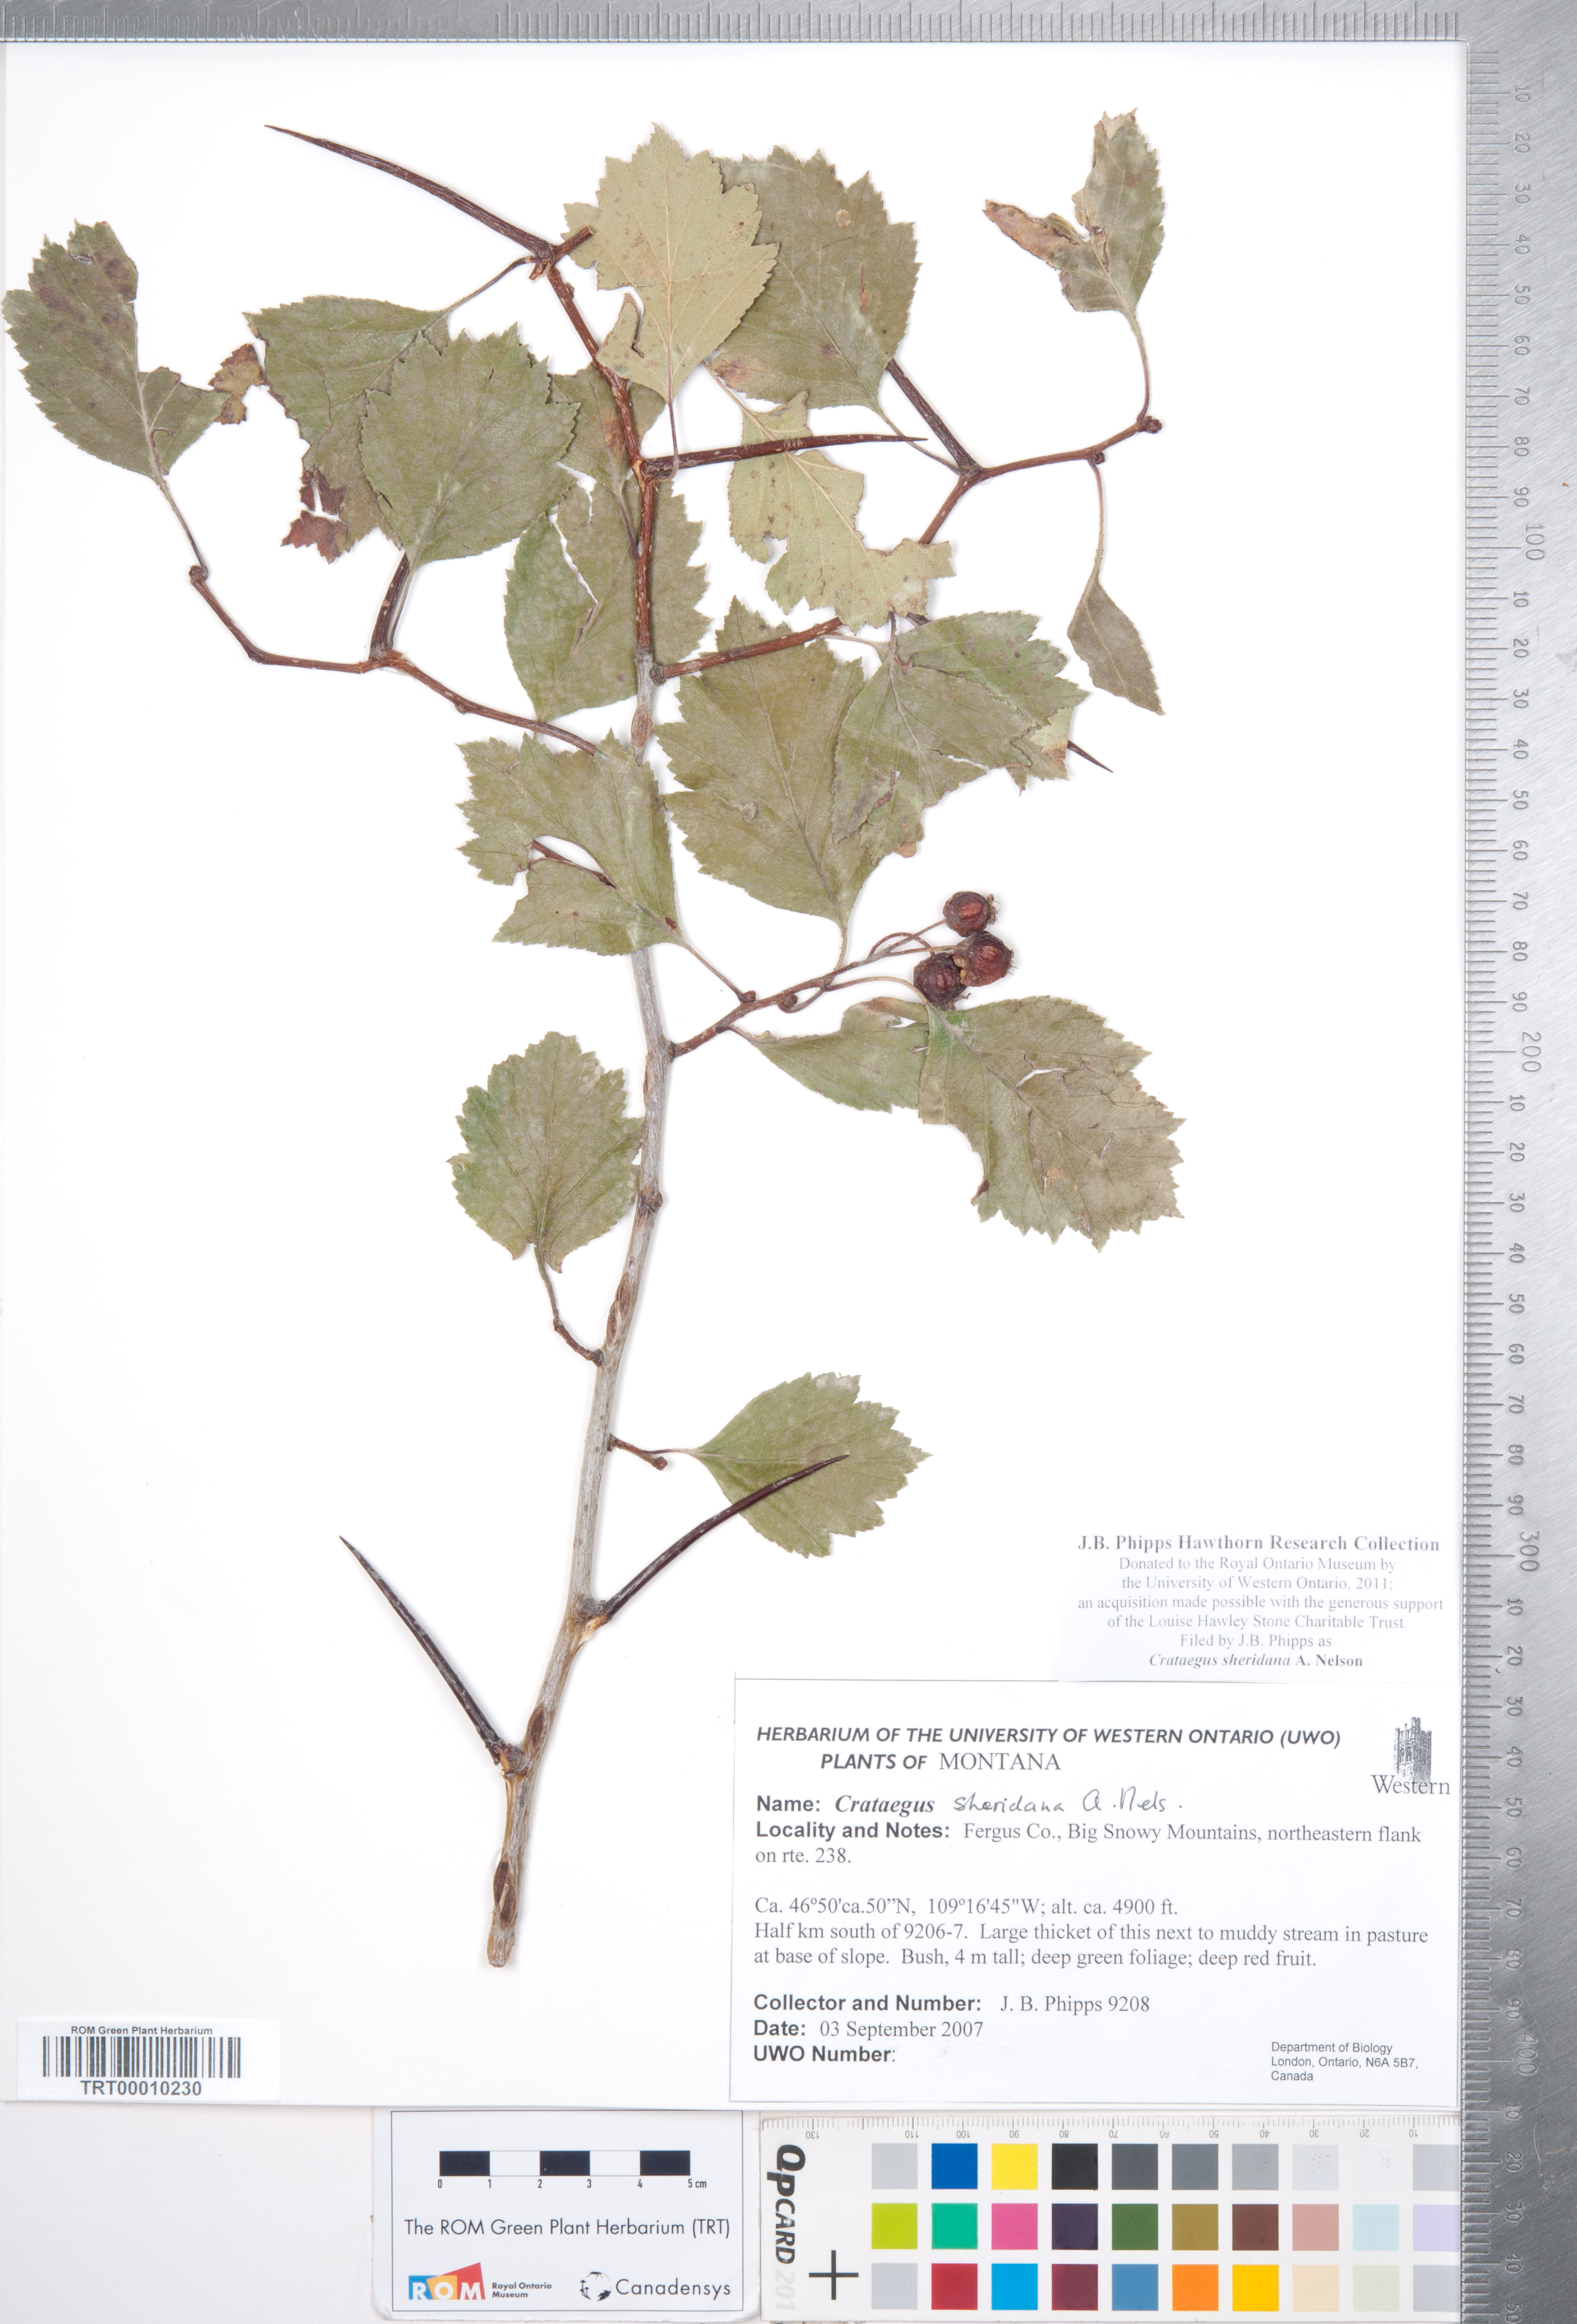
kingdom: Plantae
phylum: Tracheophyta
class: Magnoliopsida
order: Rosales
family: Rosaceae
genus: Crataegus
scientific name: Crataegus chrysocarpa
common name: Fire-berry hawthorn
